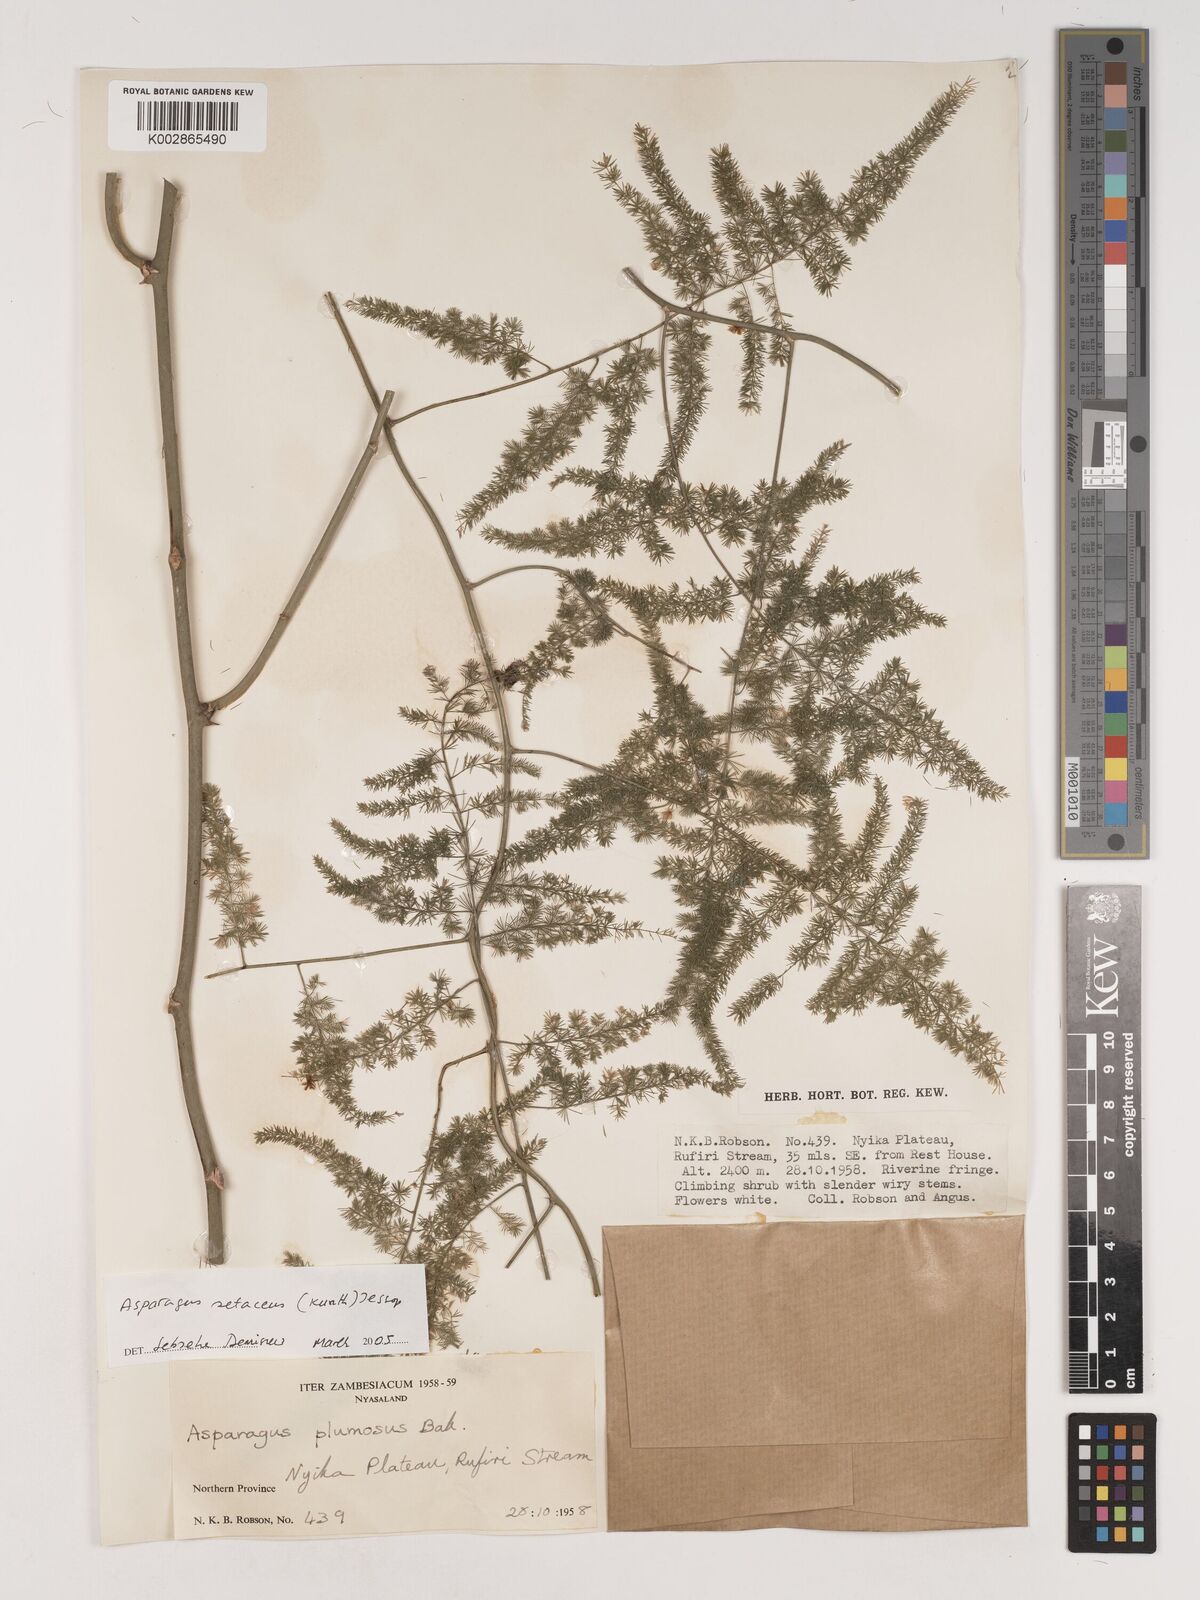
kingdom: Plantae
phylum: Tracheophyta
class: Liliopsida
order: Asparagales
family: Asparagaceae
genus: Asparagus
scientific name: Asparagus setaceus
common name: Common asparagus fern
